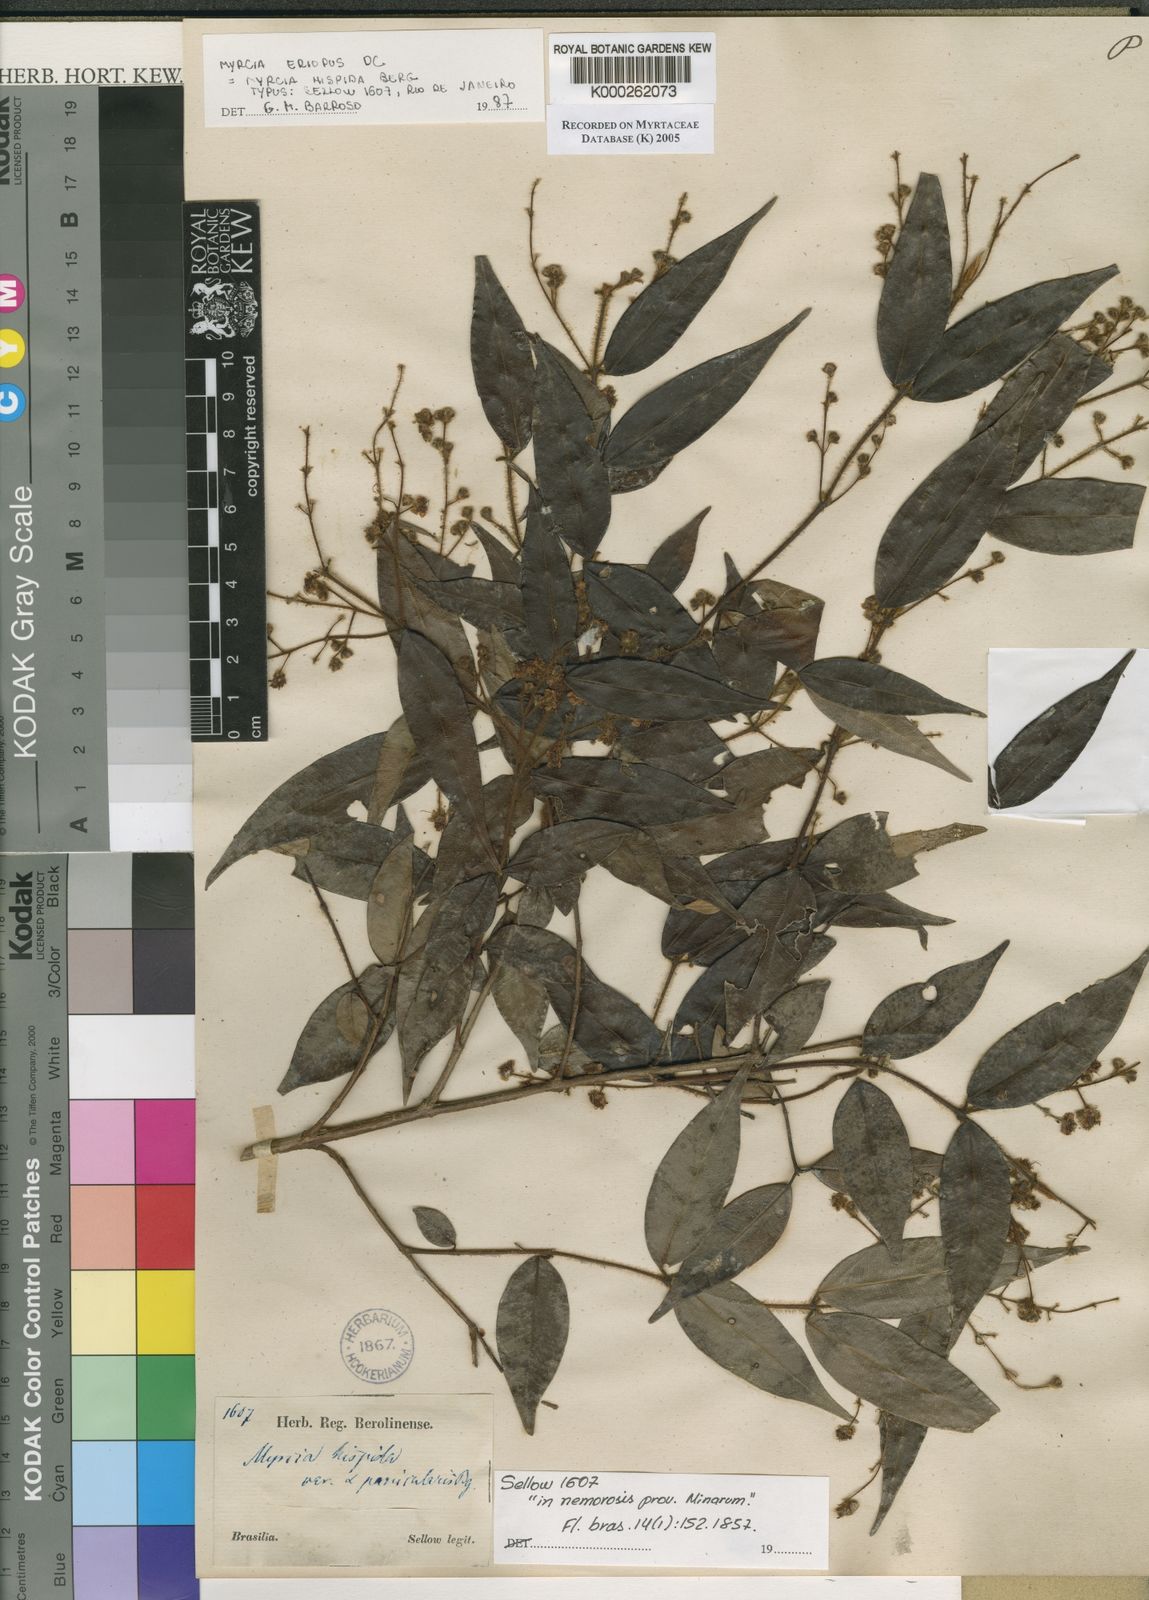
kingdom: Plantae
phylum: Tracheophyta
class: Magnoliopsida
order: Myrtales
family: Myrtaceae
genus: Myrcia
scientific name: Myrcia eriopus
